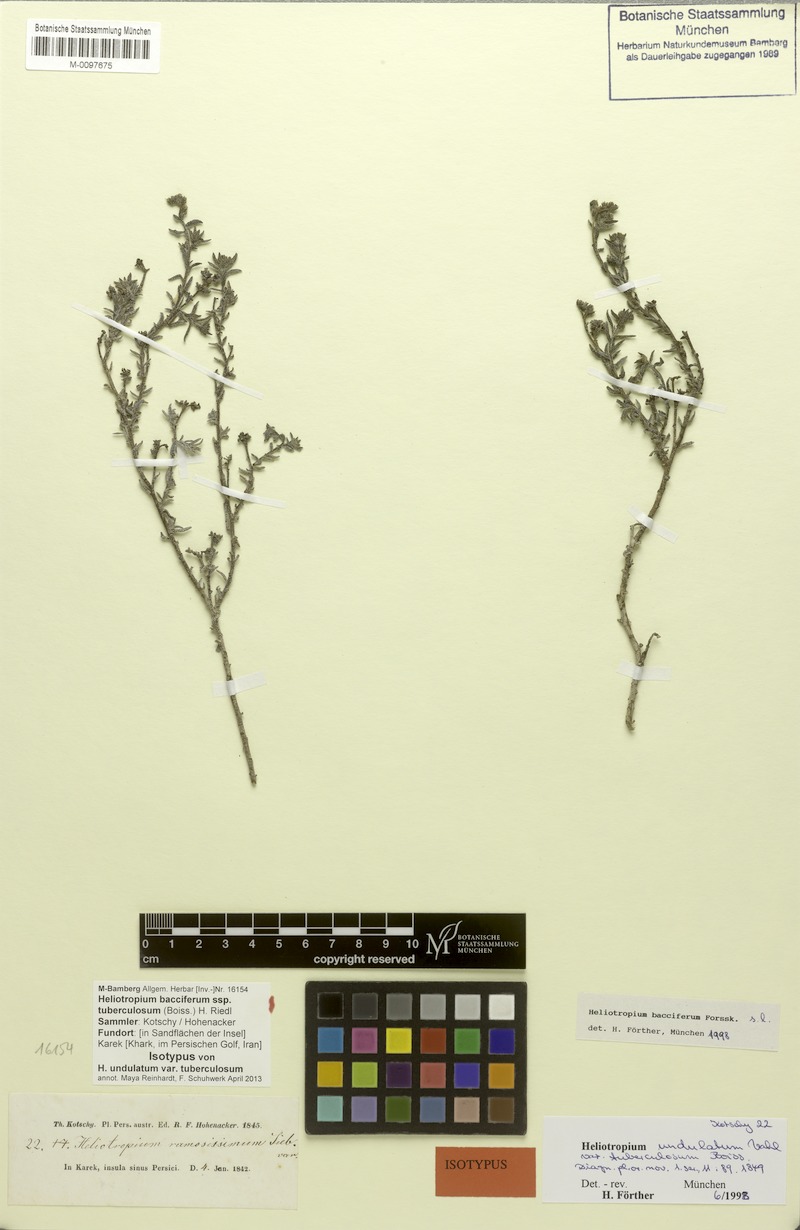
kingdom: Plantae
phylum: Tracheophyta
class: Magnoliopsida
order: Boraginales
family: Heliotropiaceae
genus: Heliotropium
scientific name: Heliotropium bacciferum
